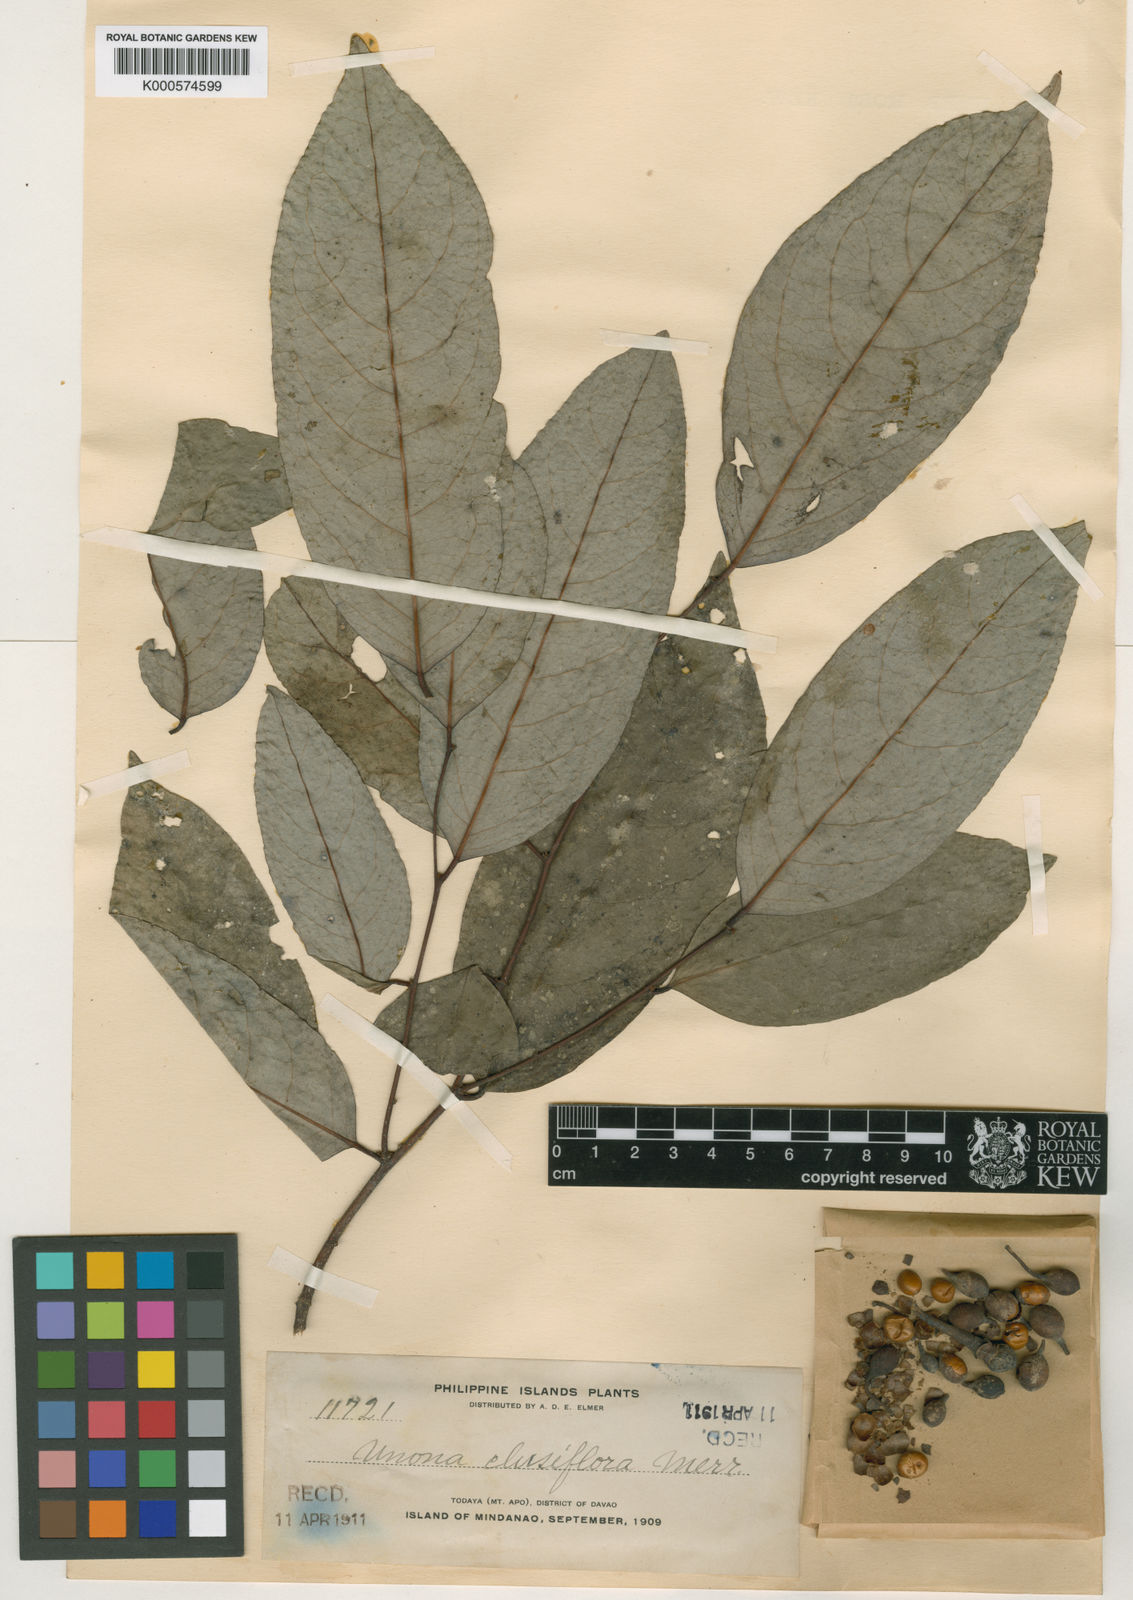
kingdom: Plantae
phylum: Tracheophyta
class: Magnoliopsida
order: Magnoliales
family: Annonaceae
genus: Annona
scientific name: Annona
